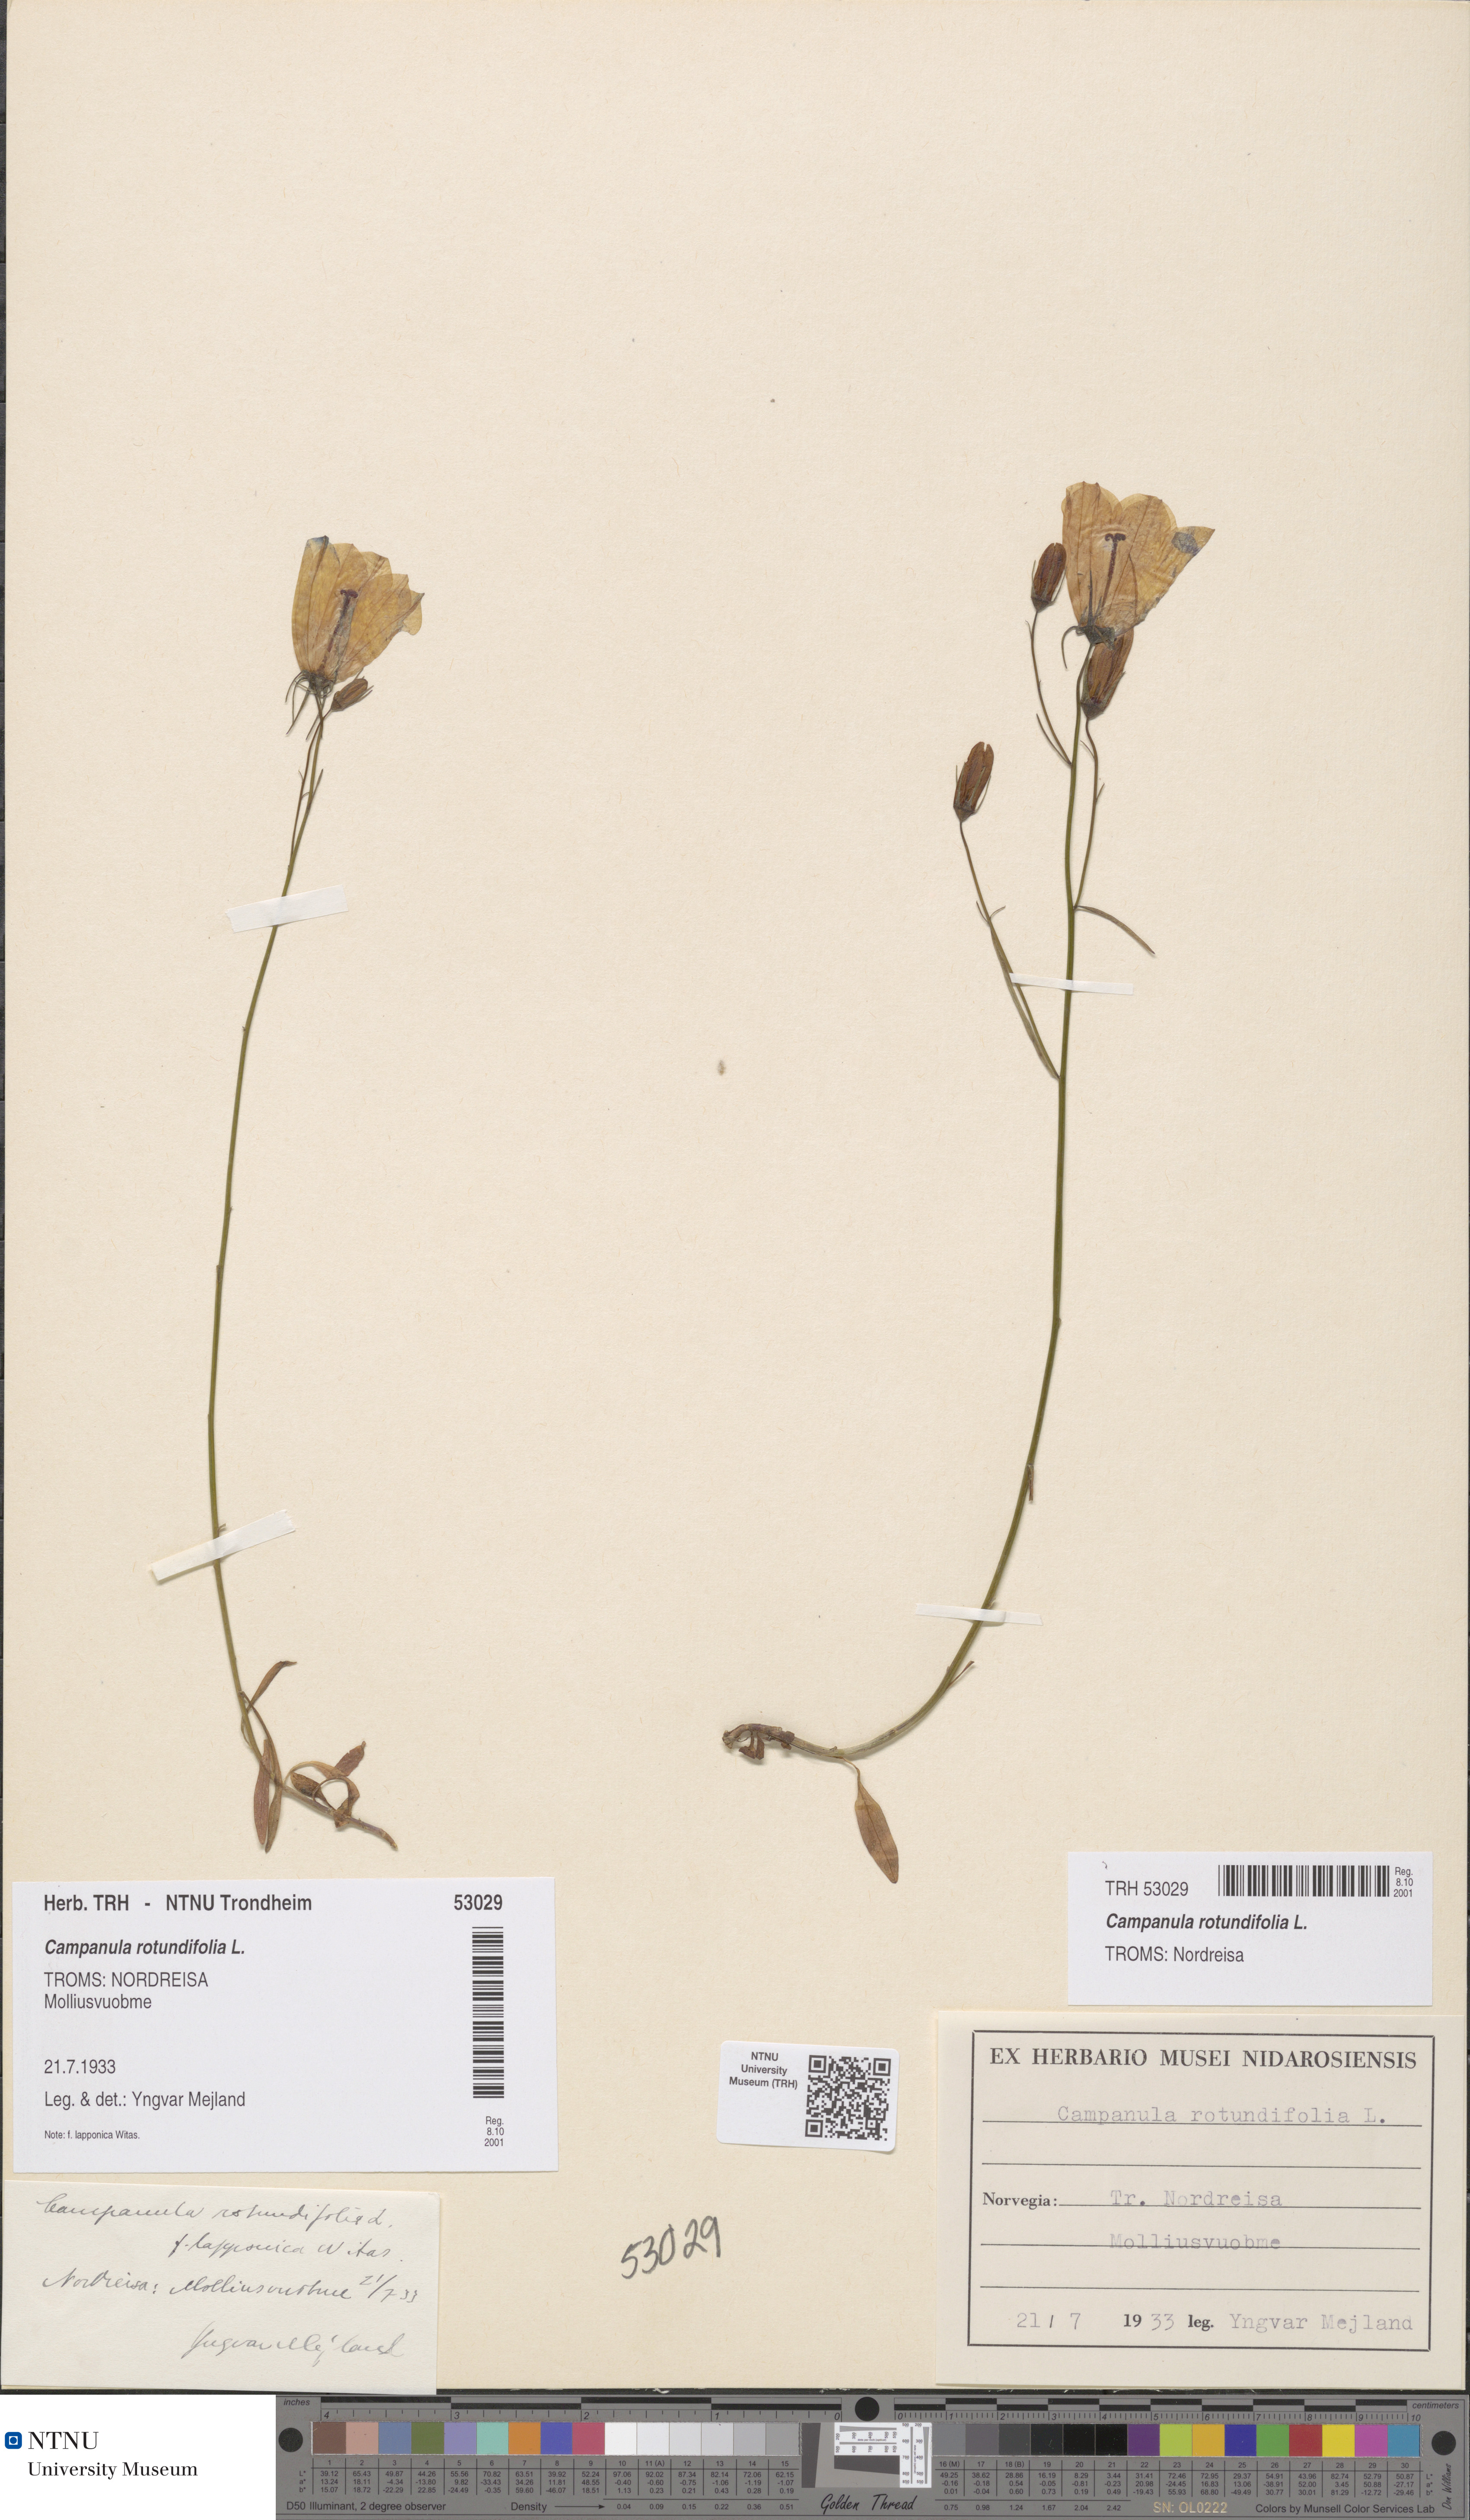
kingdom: Plantae
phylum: Tracheophyta
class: Magnoliopsida
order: Asterales
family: Campanulaceae
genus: Campanula
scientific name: Campanula rotundifolia
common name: Harebell
